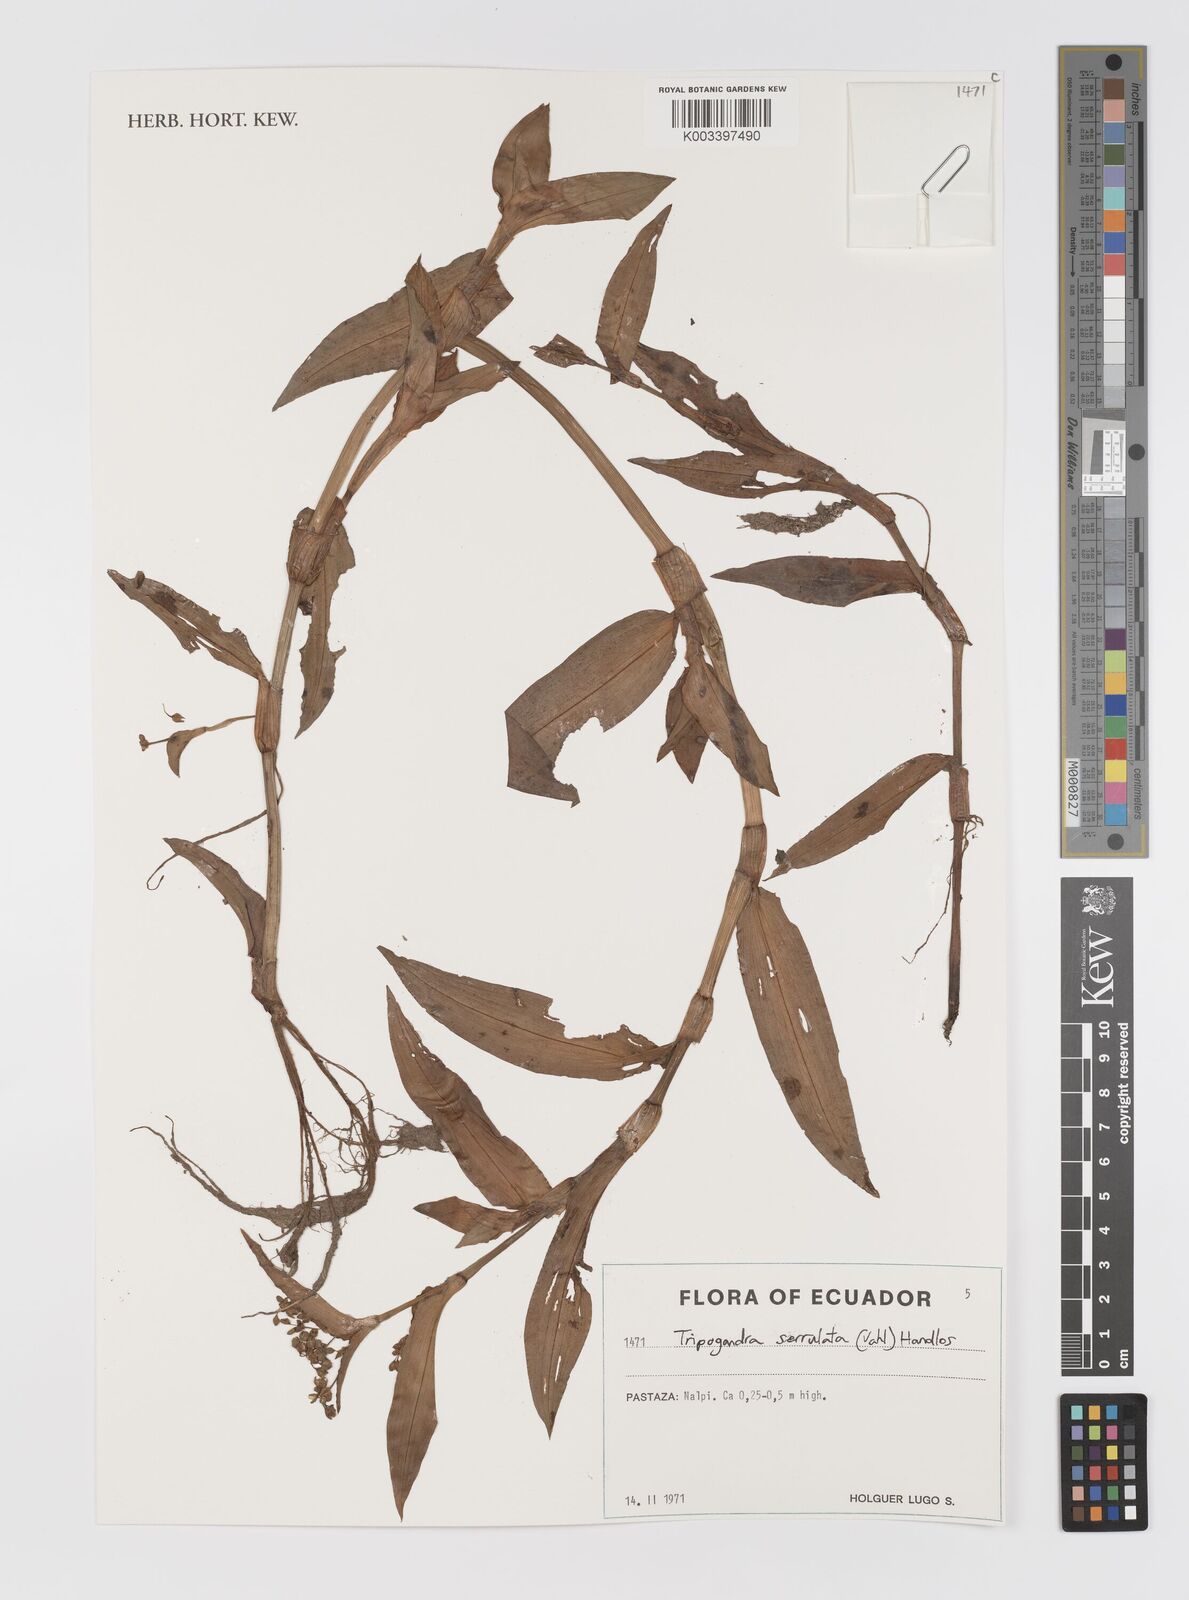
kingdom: Plantae
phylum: Tracheophyta
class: Liliopsida
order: Commelinales
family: Commelinaceae
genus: Callisia
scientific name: Callisia serrulata
